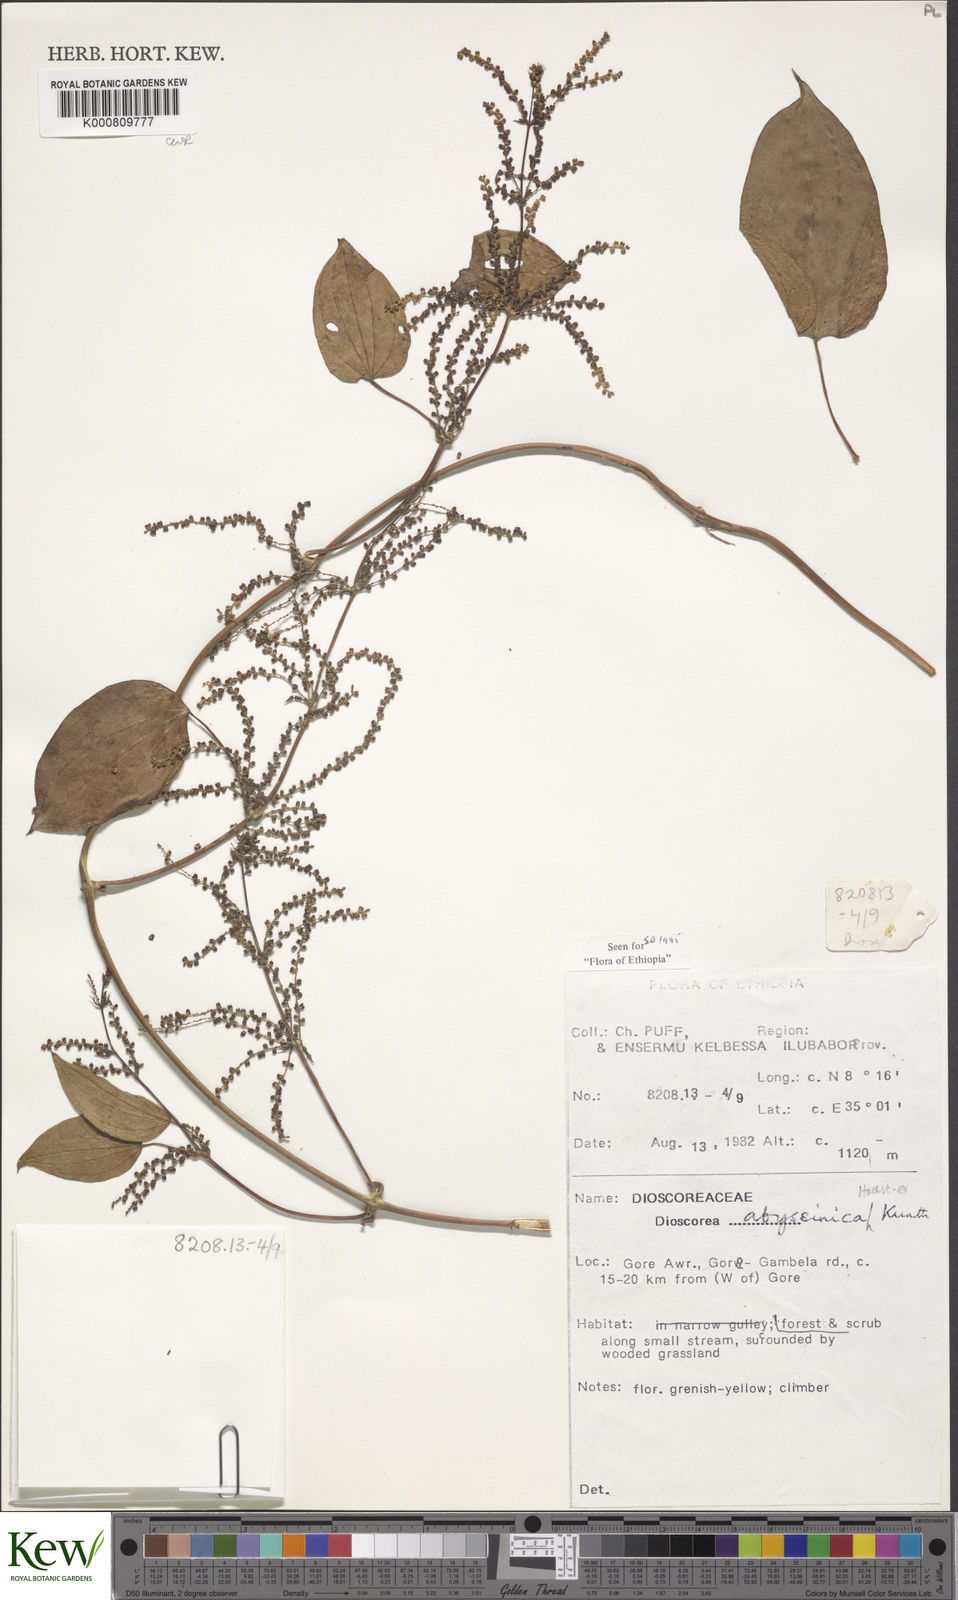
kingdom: Plantae
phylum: Tracheophyta
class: Liliopsida
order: Dioscoreales
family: Dioscoreaceae
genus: Dioscorea
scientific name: Dioscorea abyssinica
